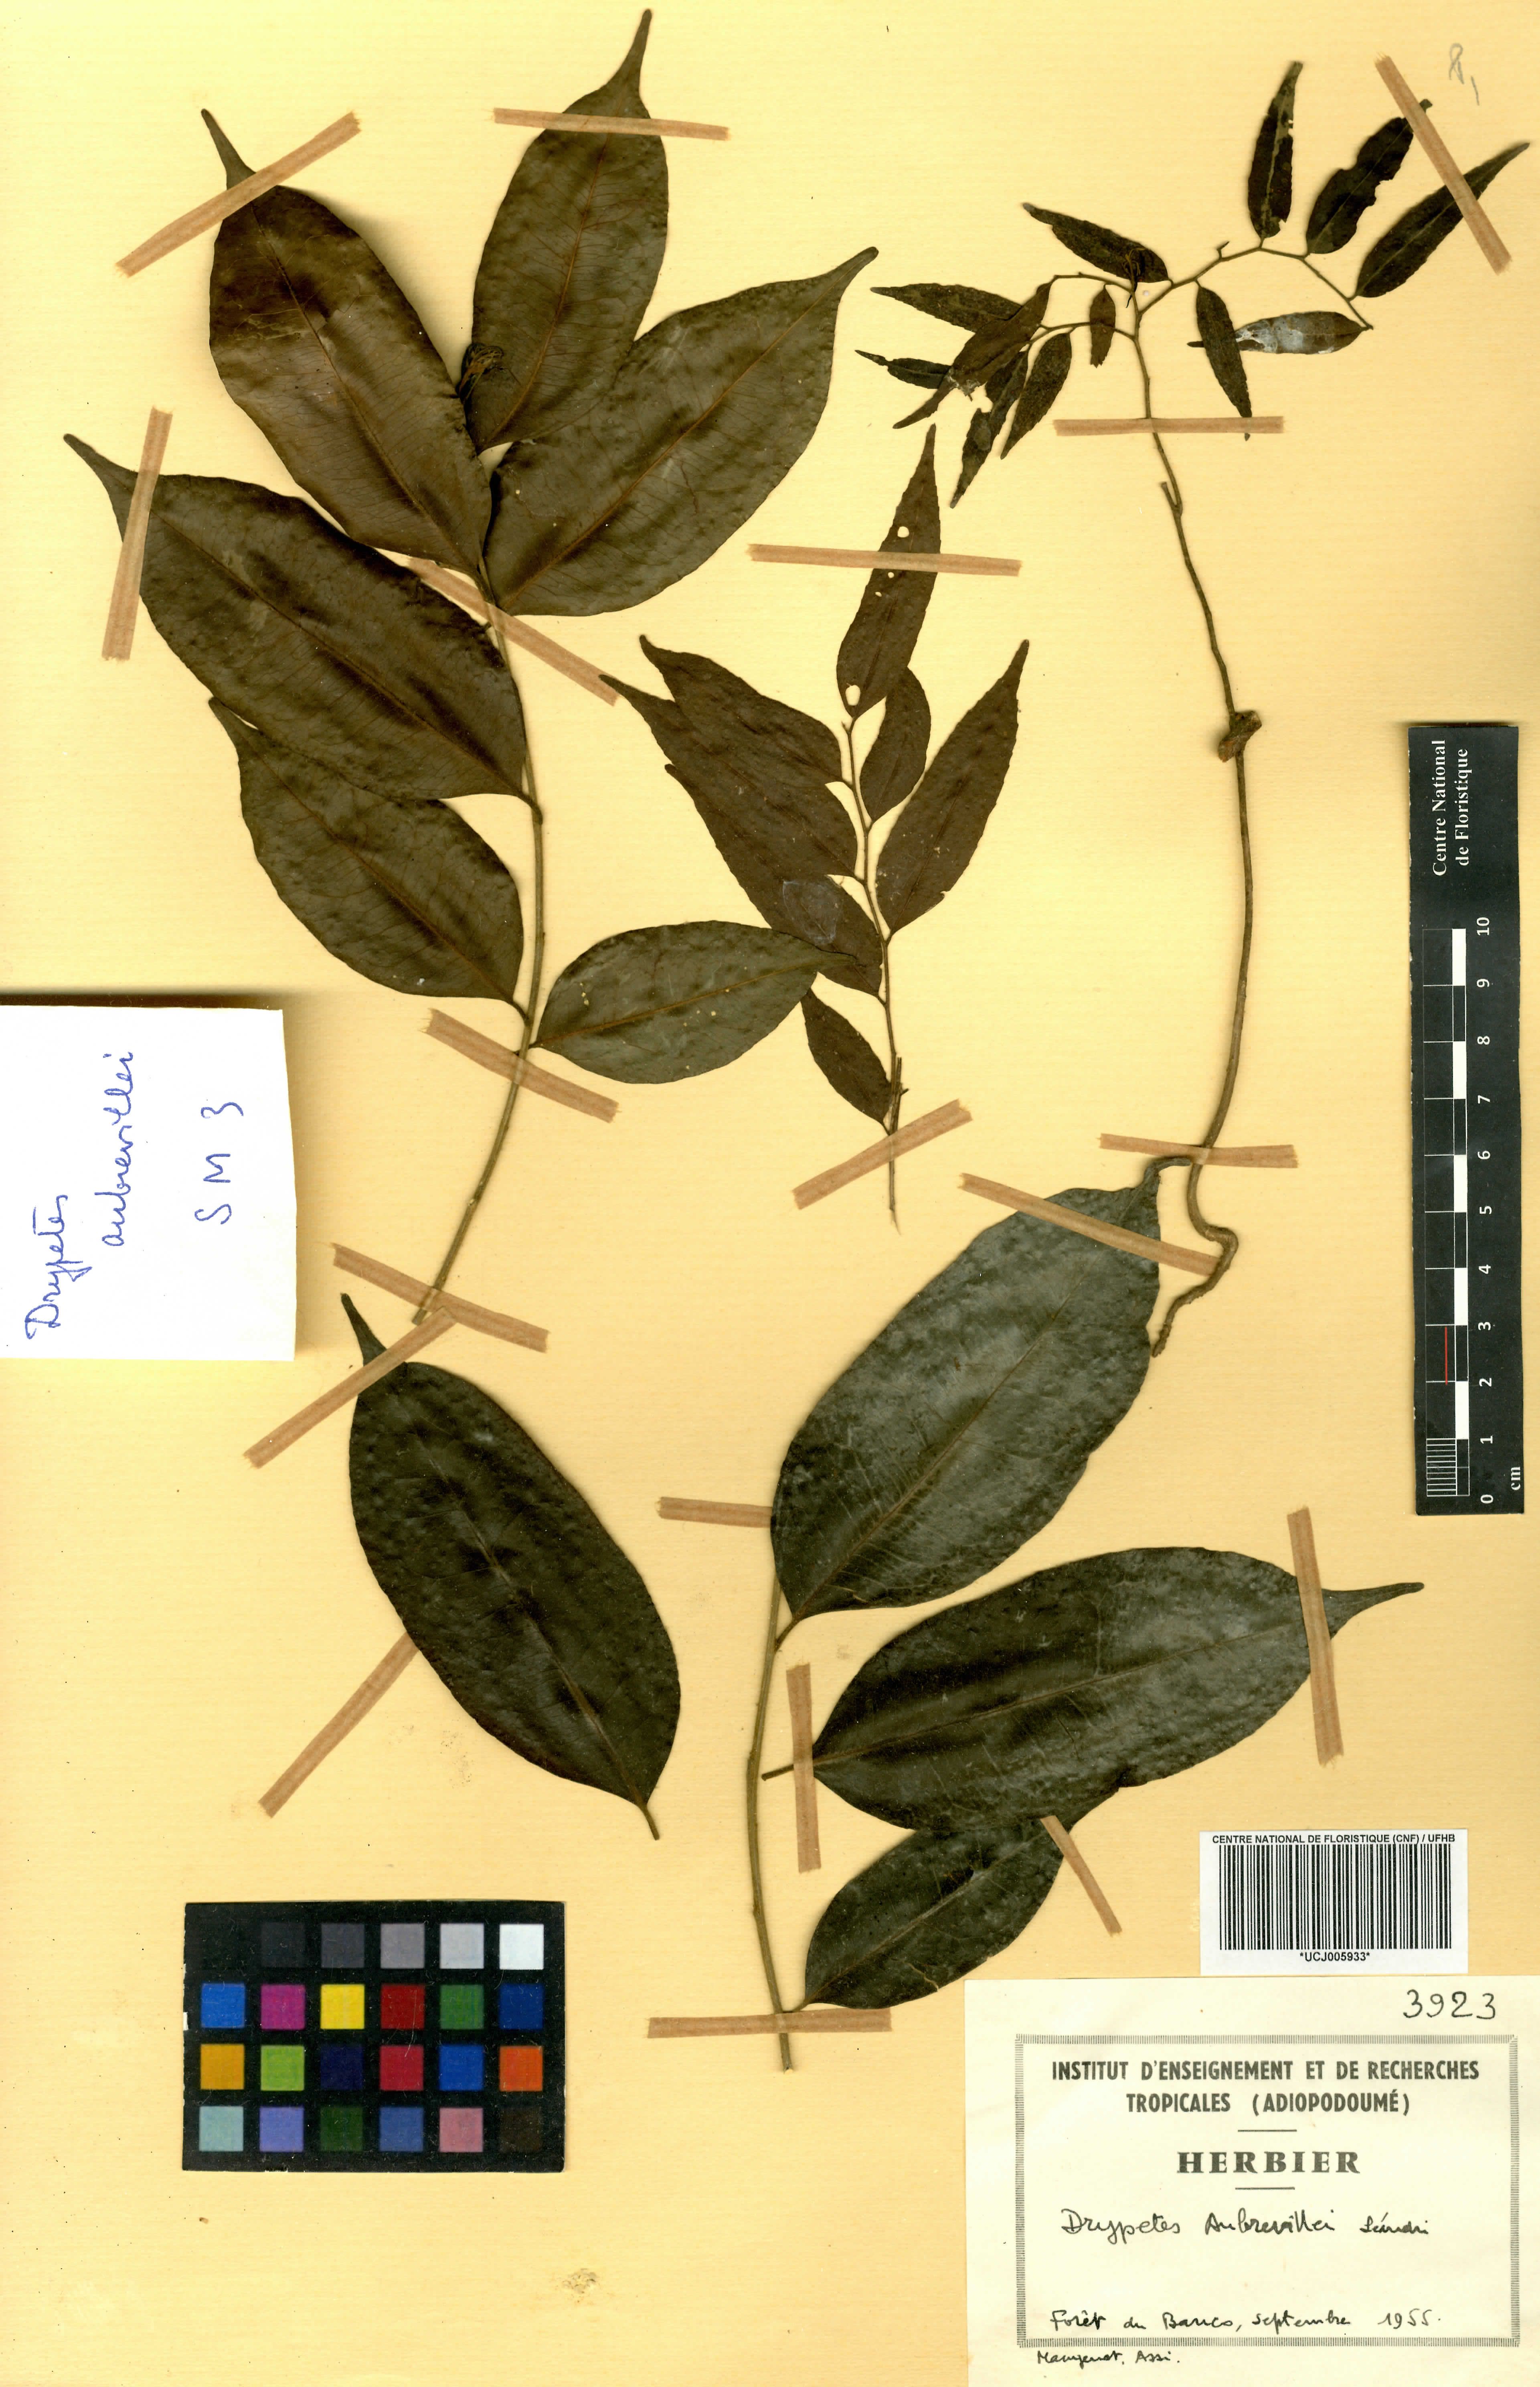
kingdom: Plantae
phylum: Tracheophyta
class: Magnoliopsida
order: Malpighiales
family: Euphorbiaceae
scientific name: Euphorbiaceae
